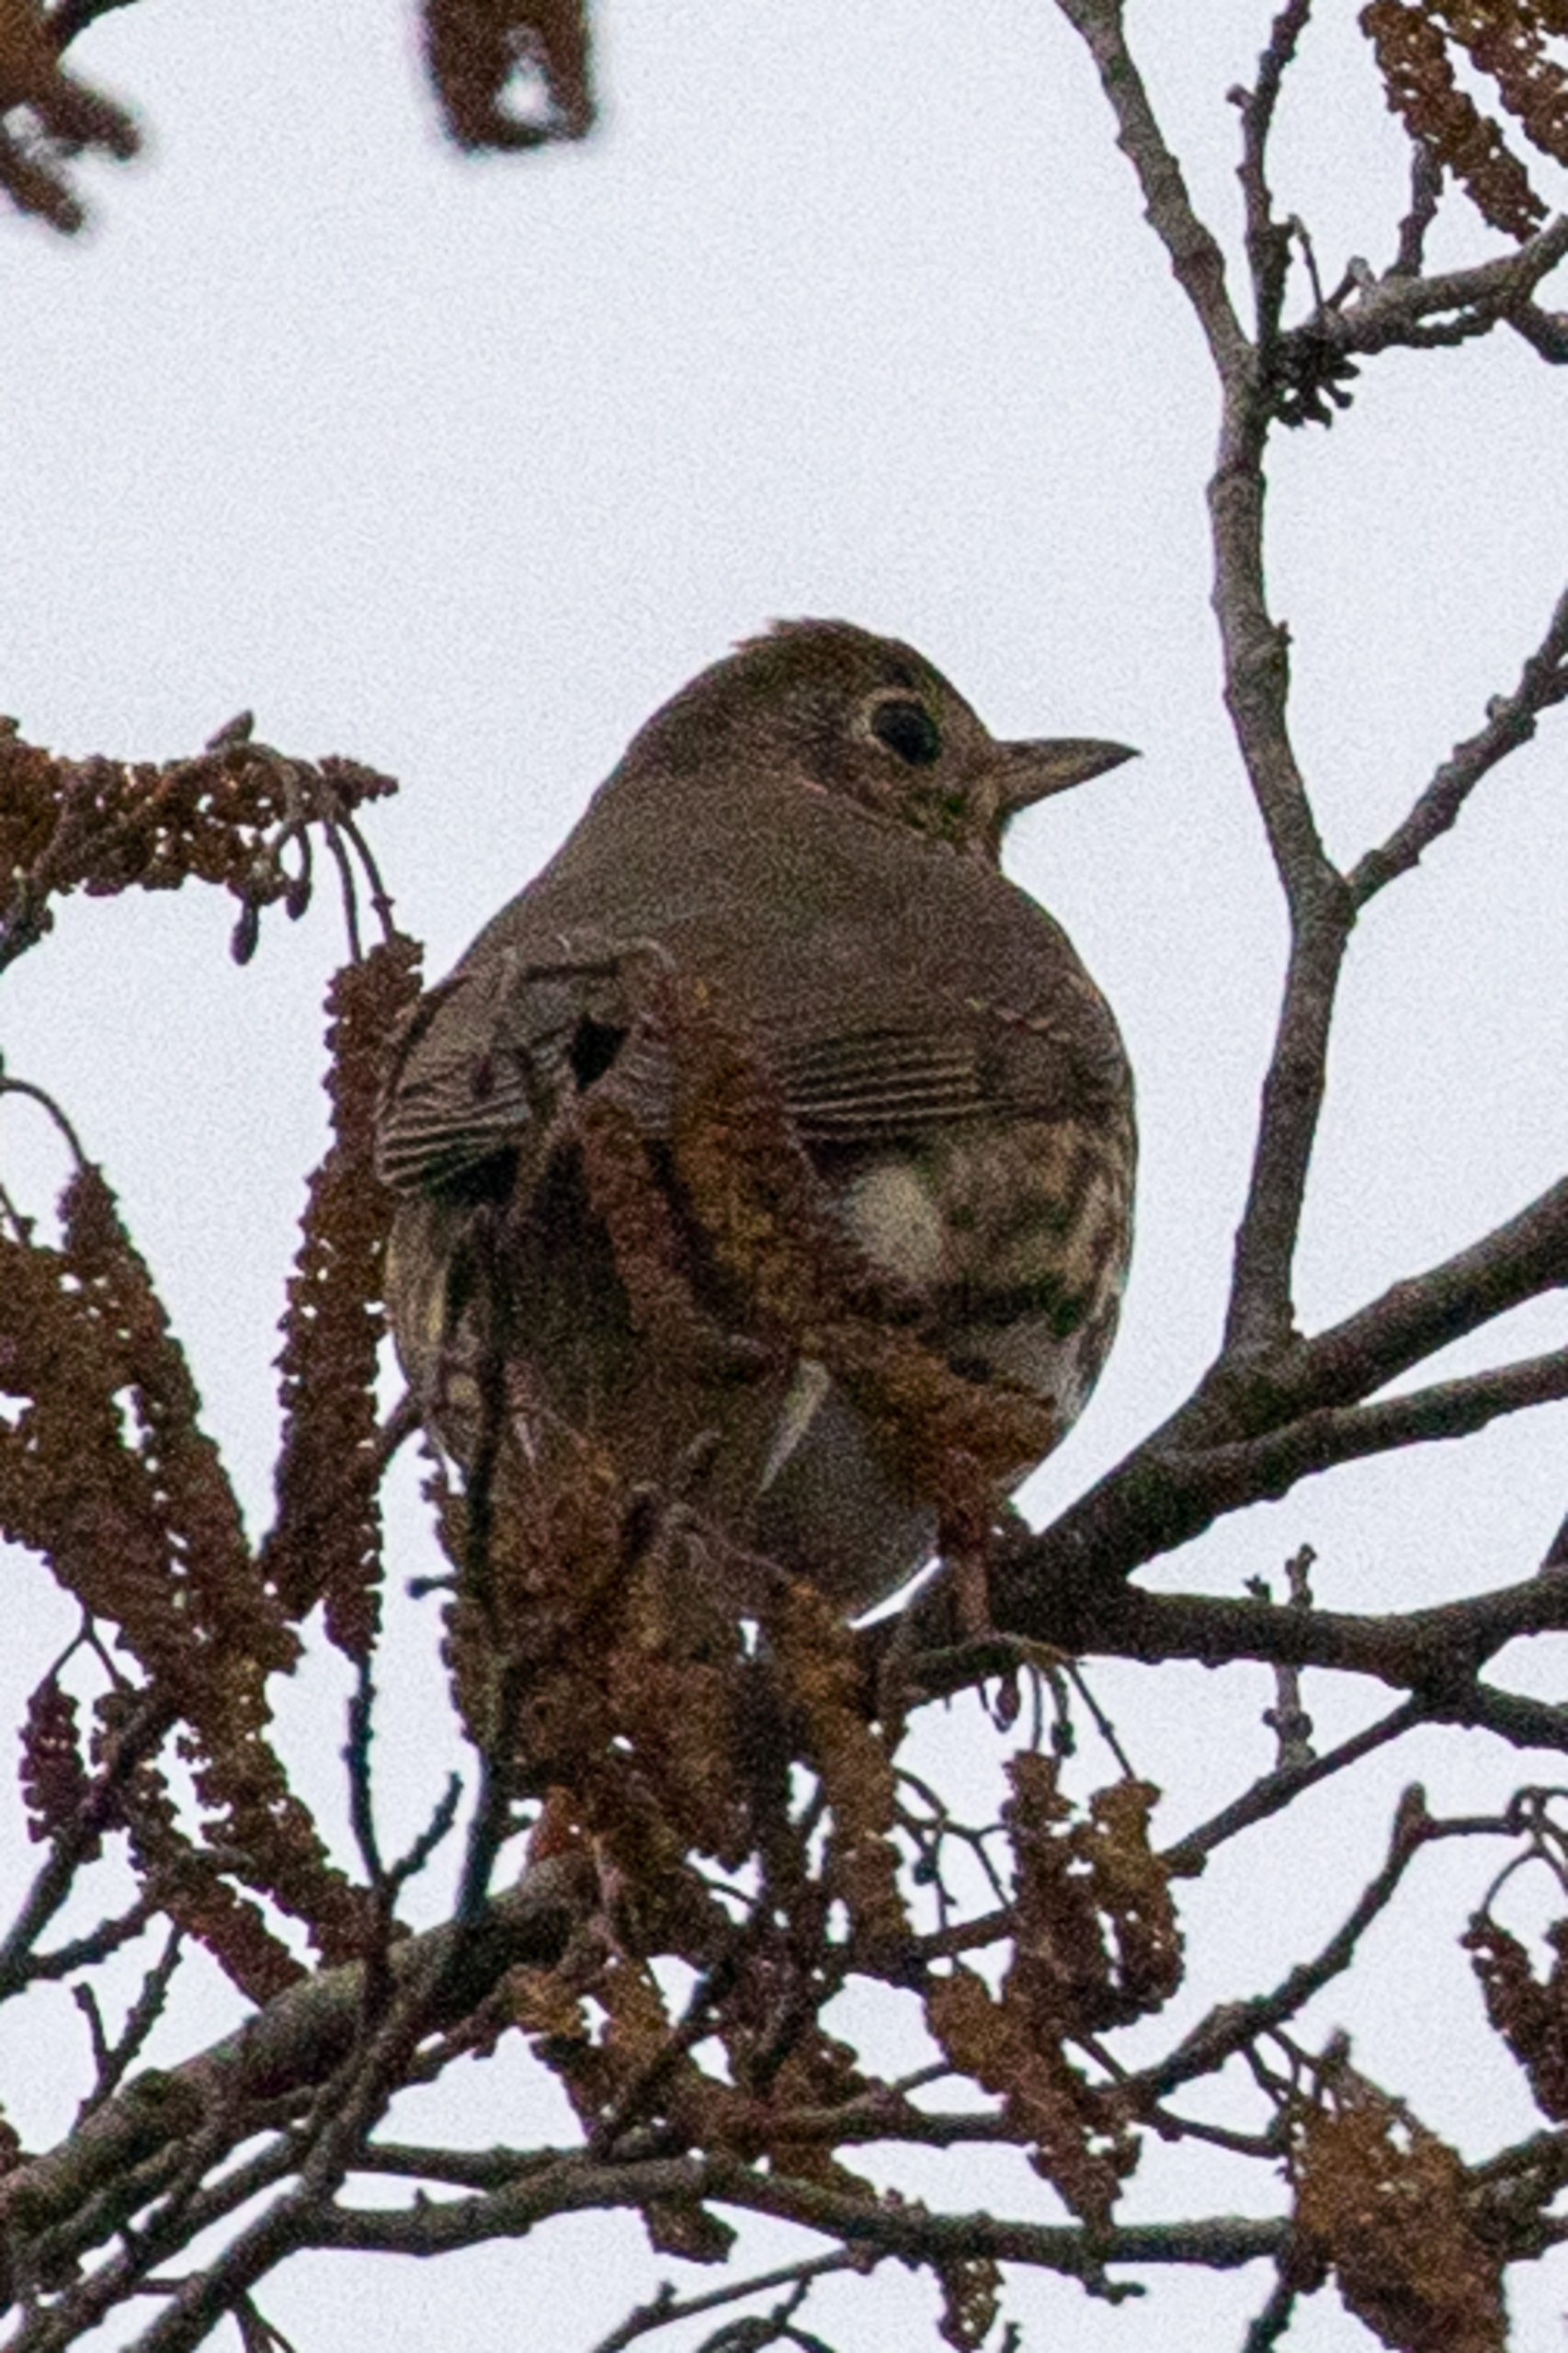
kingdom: Animalia
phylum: Chordata
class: Aves
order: Passeriformes
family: Turdidae
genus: Turdus
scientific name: Turdus philomelos
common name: Sangdrossel
